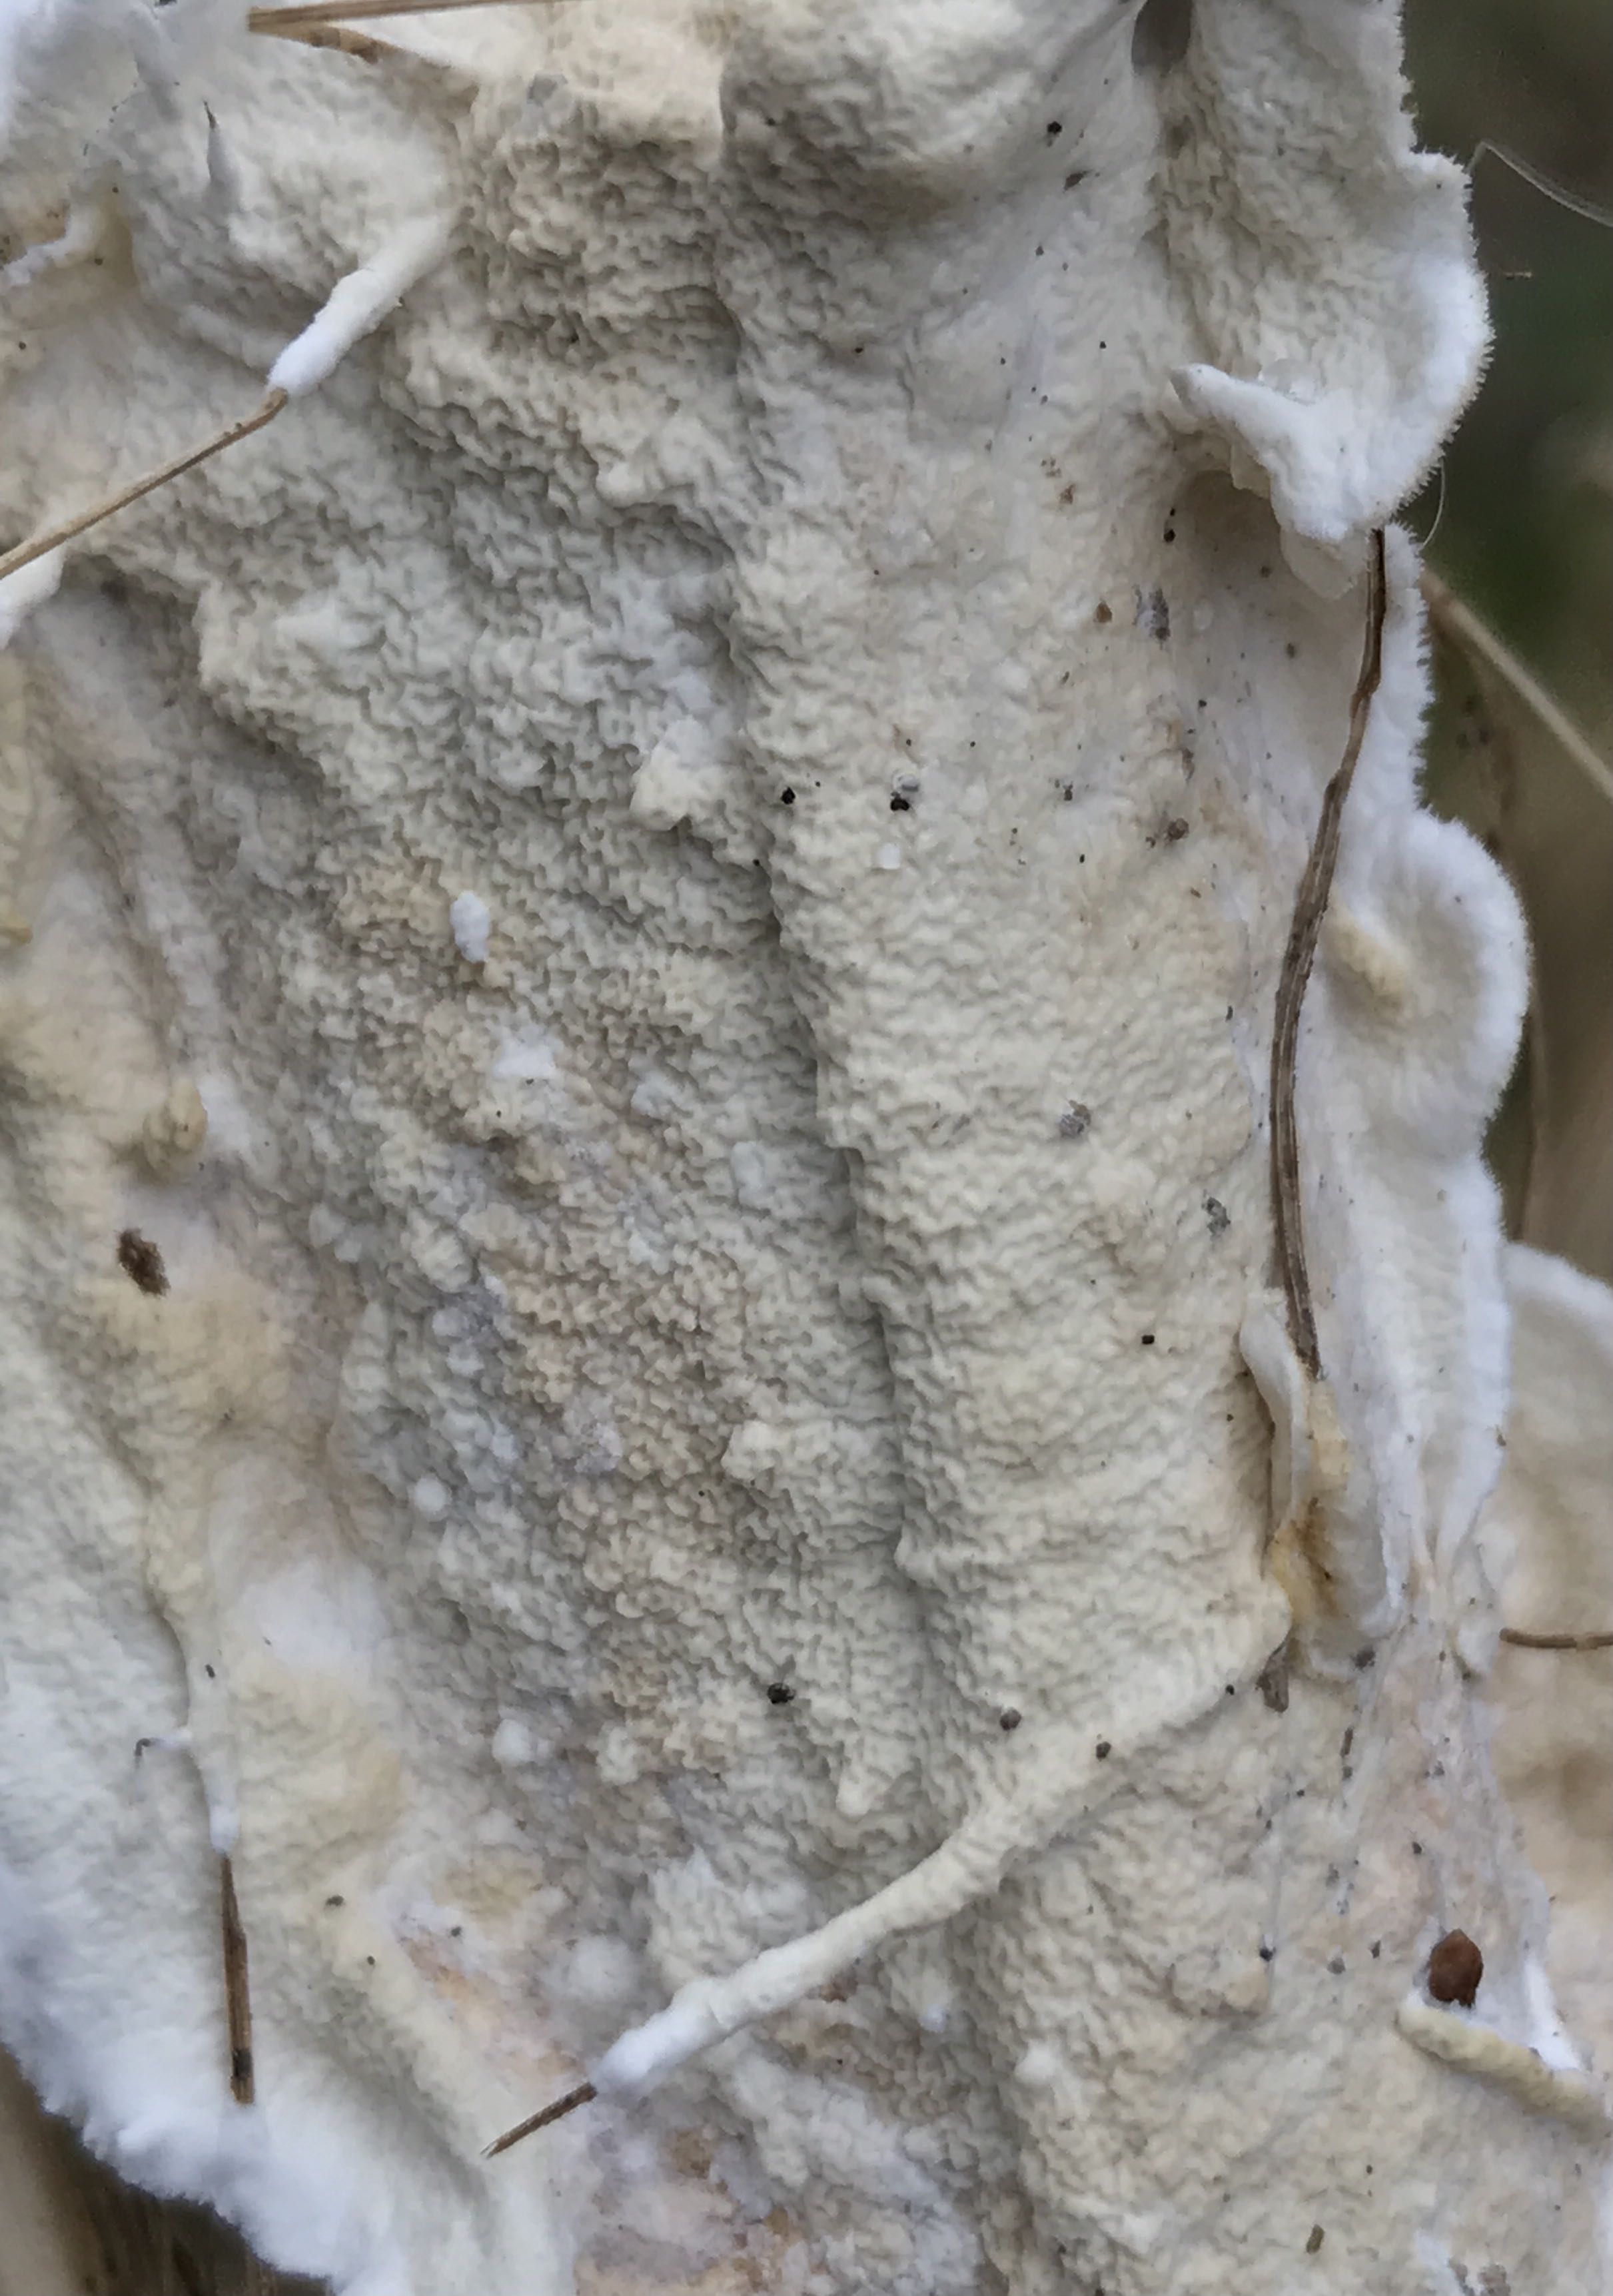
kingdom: Fungi
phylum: Basidiomycota
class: Agaricomycetes
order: Polyporales
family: Irpicaceae
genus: Byssomerulius
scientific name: Byssomerulius corium
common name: læder-åresvamp
